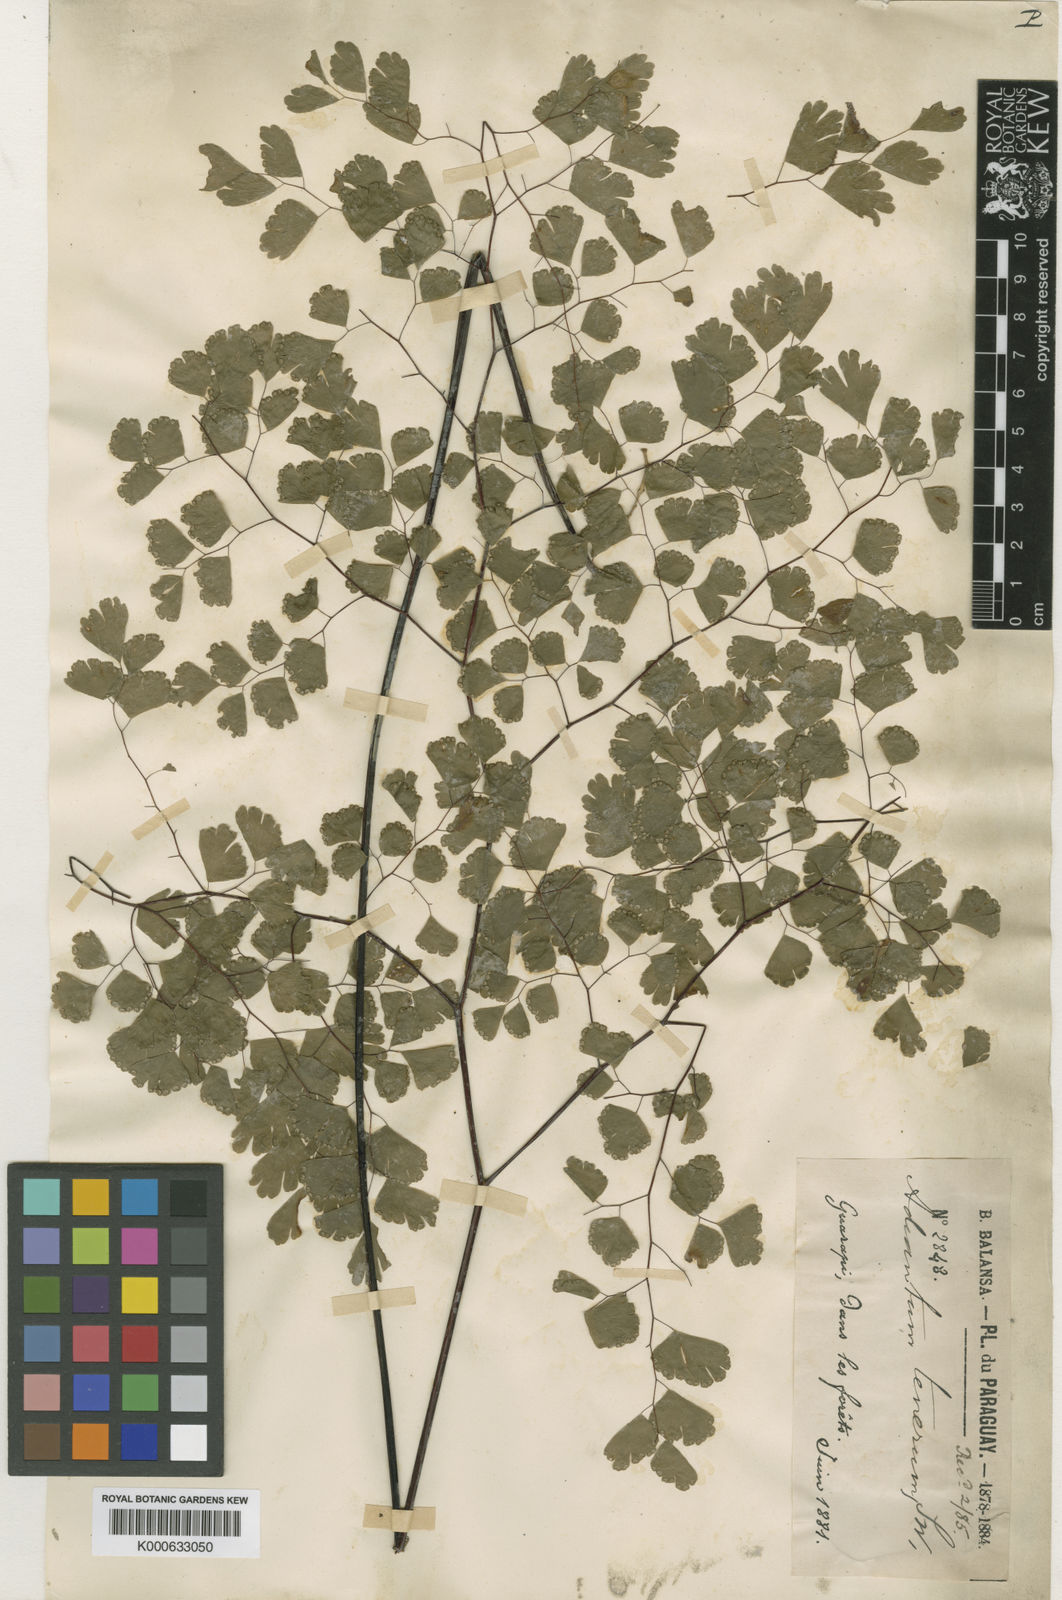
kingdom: Plantae
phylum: Tracheophyta
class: Polypodiopsida
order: Polypodiales
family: Pteridaceae
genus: Adiantum
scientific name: Adiantum raddianum
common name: Delta maidenhair fern
